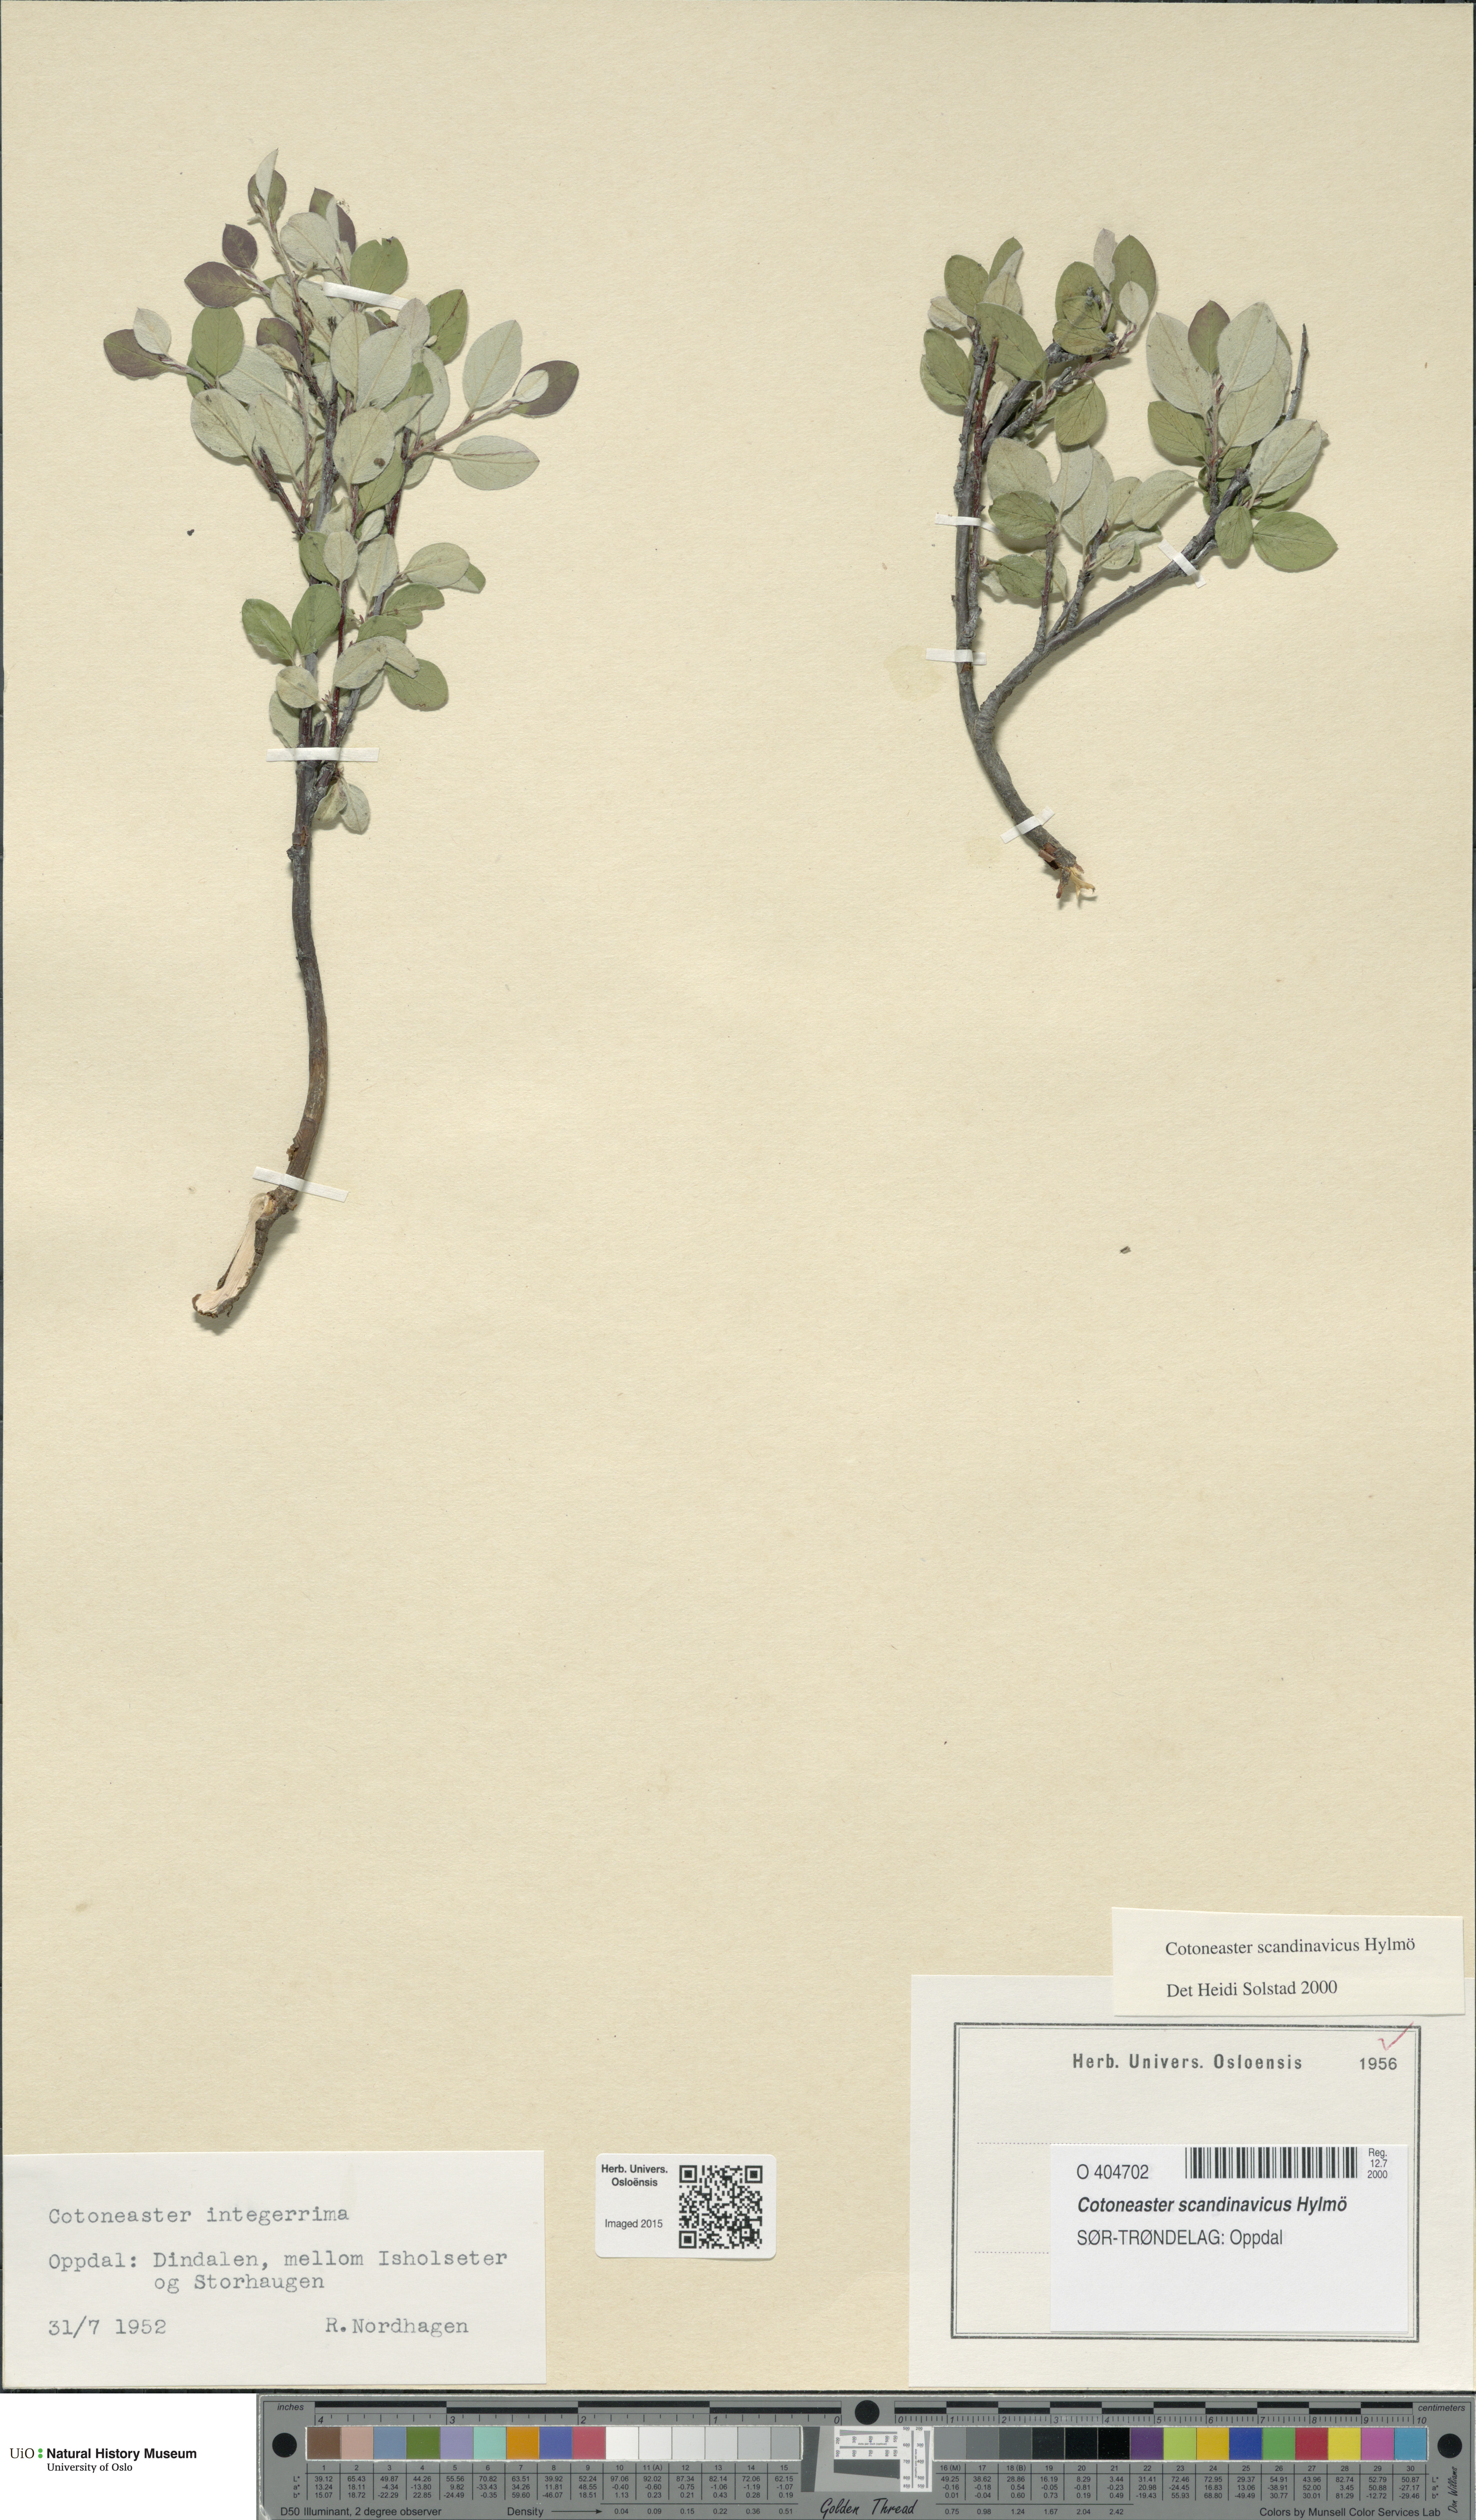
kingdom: Plantae
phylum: Tracheophyta
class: Magnoliopsida
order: Rosales
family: Rosaceae
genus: Cotoneaster
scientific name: Cotoneaster integerrimus
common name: Wild cotoneaster
